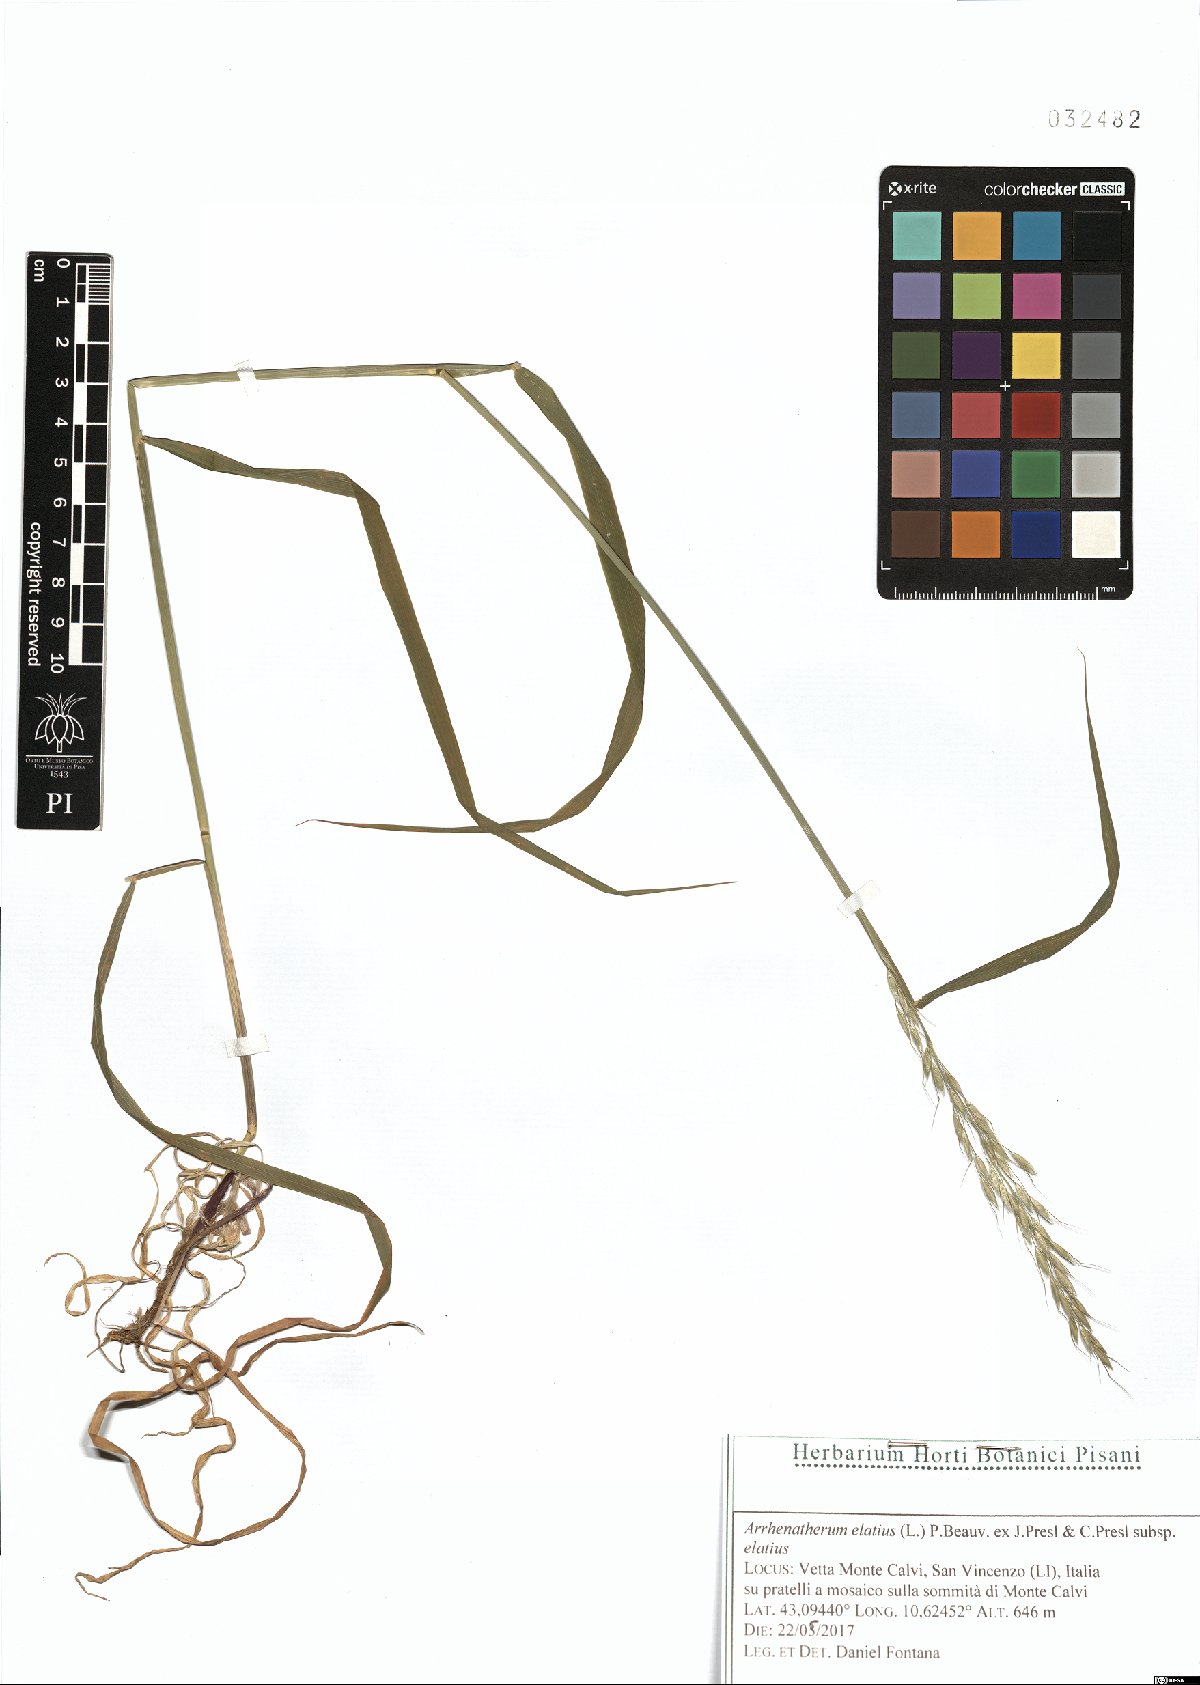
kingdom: Plantae
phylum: Tracheophyta
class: Liliopsida
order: Poales
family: Poaceae
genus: Arrhenatherum
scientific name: Arrhenatherum elatius
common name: Tall oatgrass
